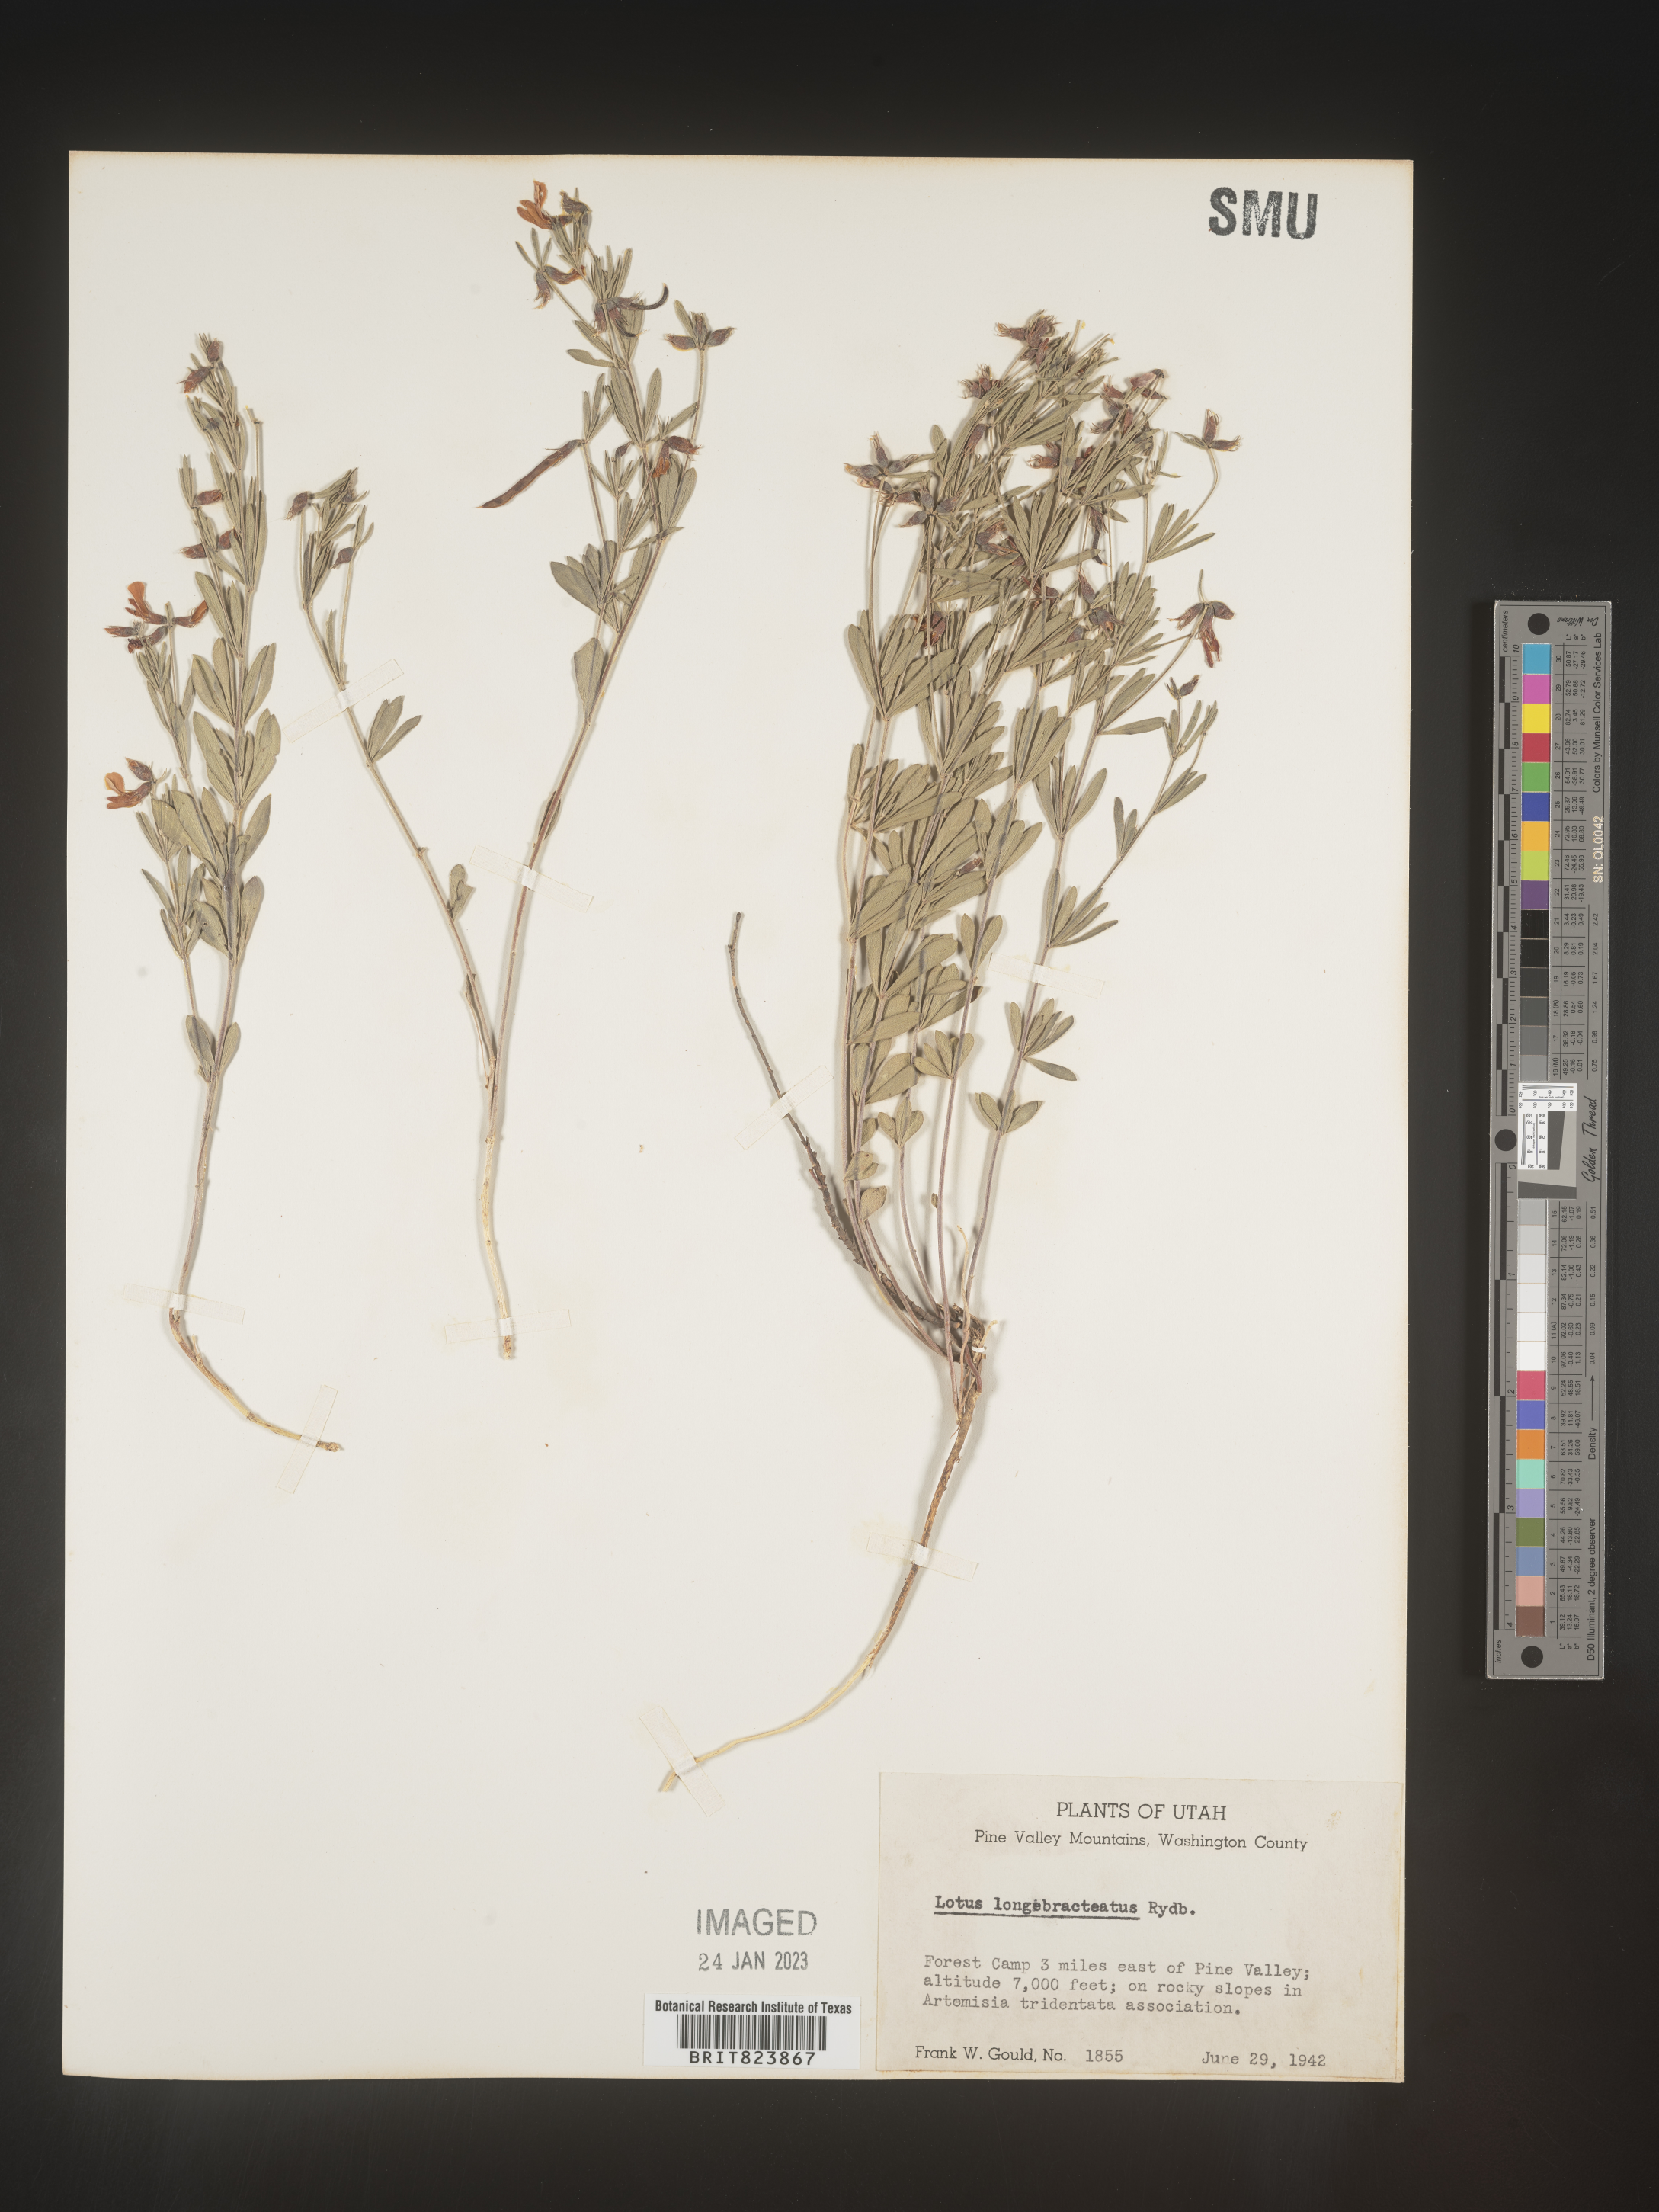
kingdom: Plantae
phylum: Tracheophyta
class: Magnoliopsida
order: Fabales
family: Fabaceae
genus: Lotus
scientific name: Lotus
